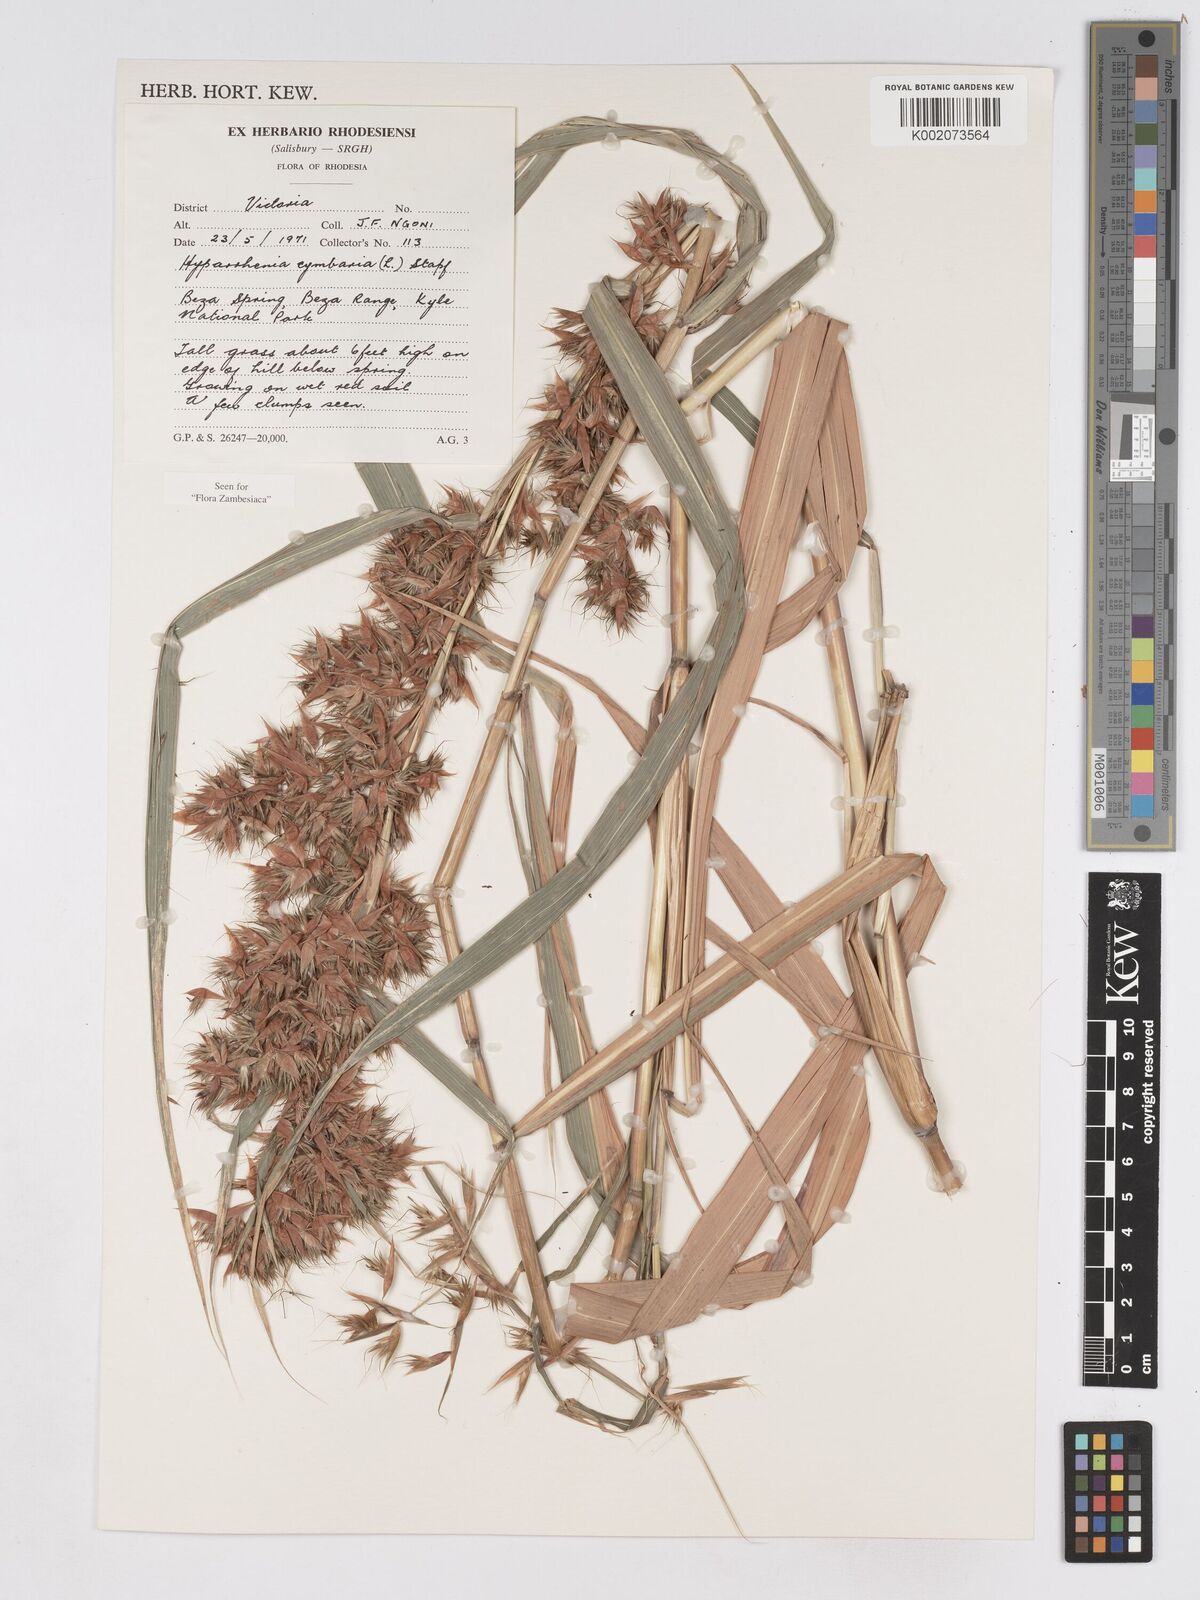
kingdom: Plantae
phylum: Tracheophyta
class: Liliopsida
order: Poales
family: Poaceae
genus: Hyparrhenia
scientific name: Hyparrhenia cymbaria
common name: Boat thatching grass
